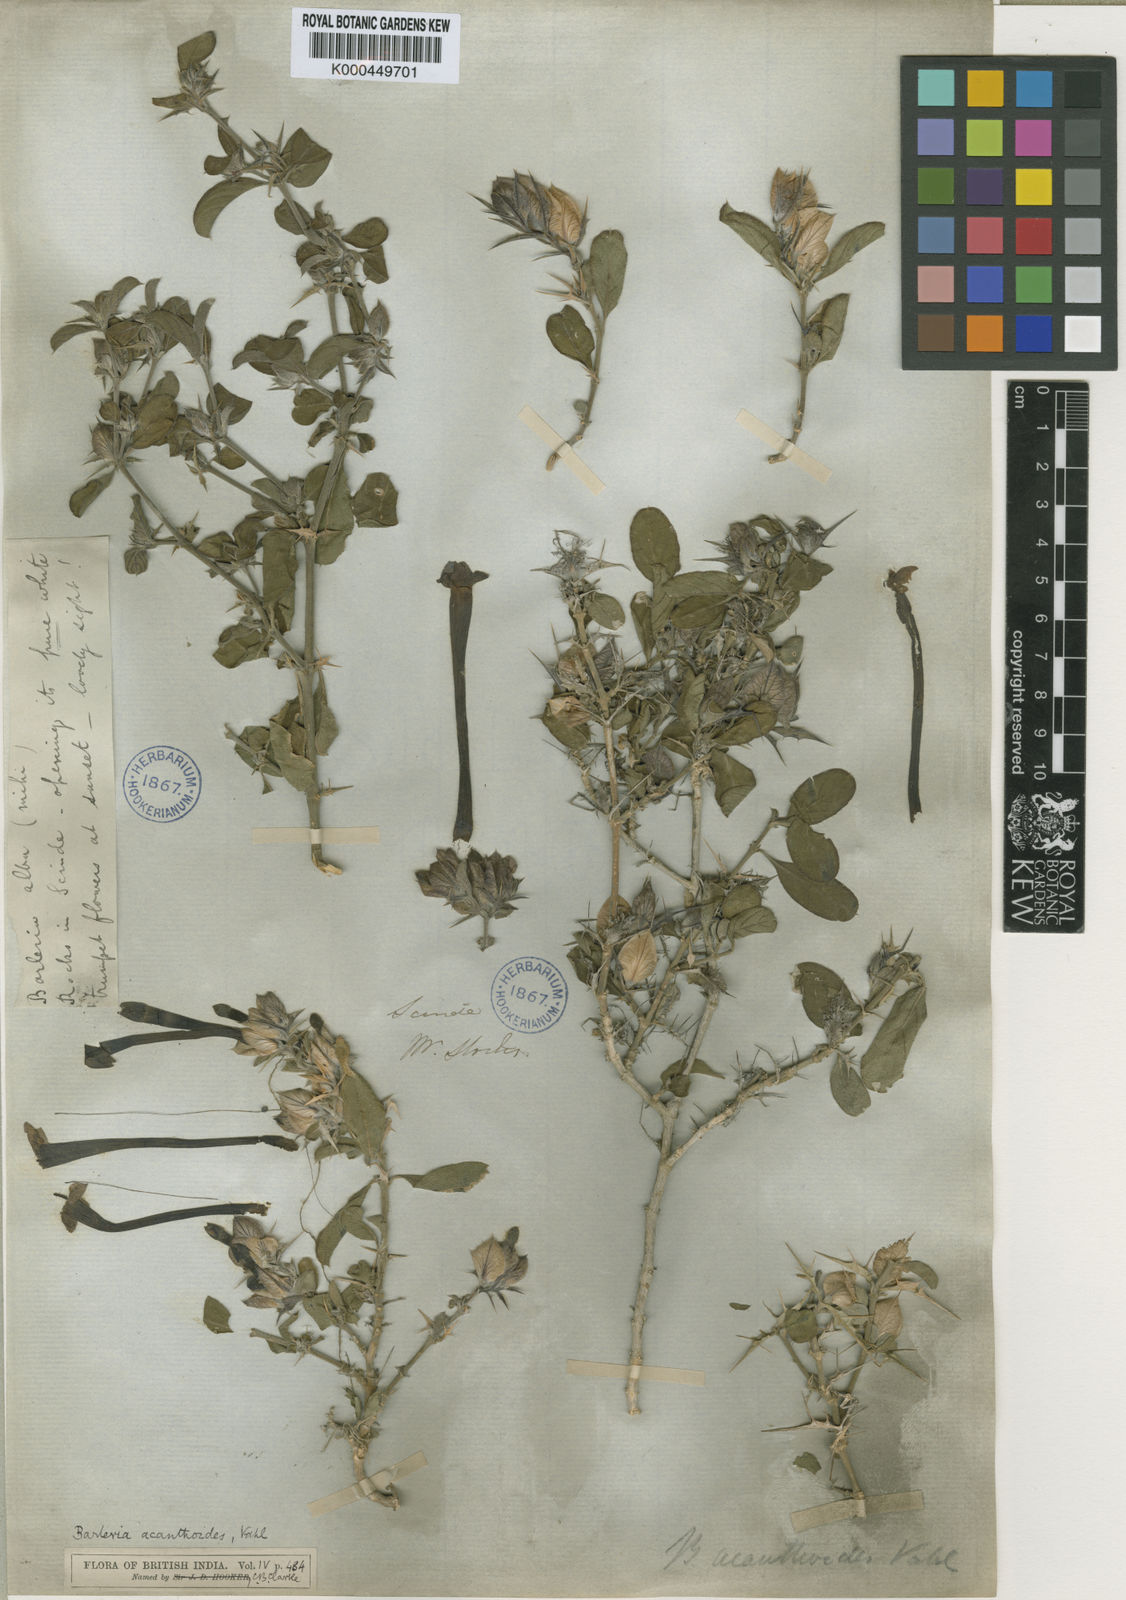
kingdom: Plantae
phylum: Tracheophyta
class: Magnoliopsida
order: Lamiales
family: Acanthaceae
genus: Barleria
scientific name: Barleria acanthoides
